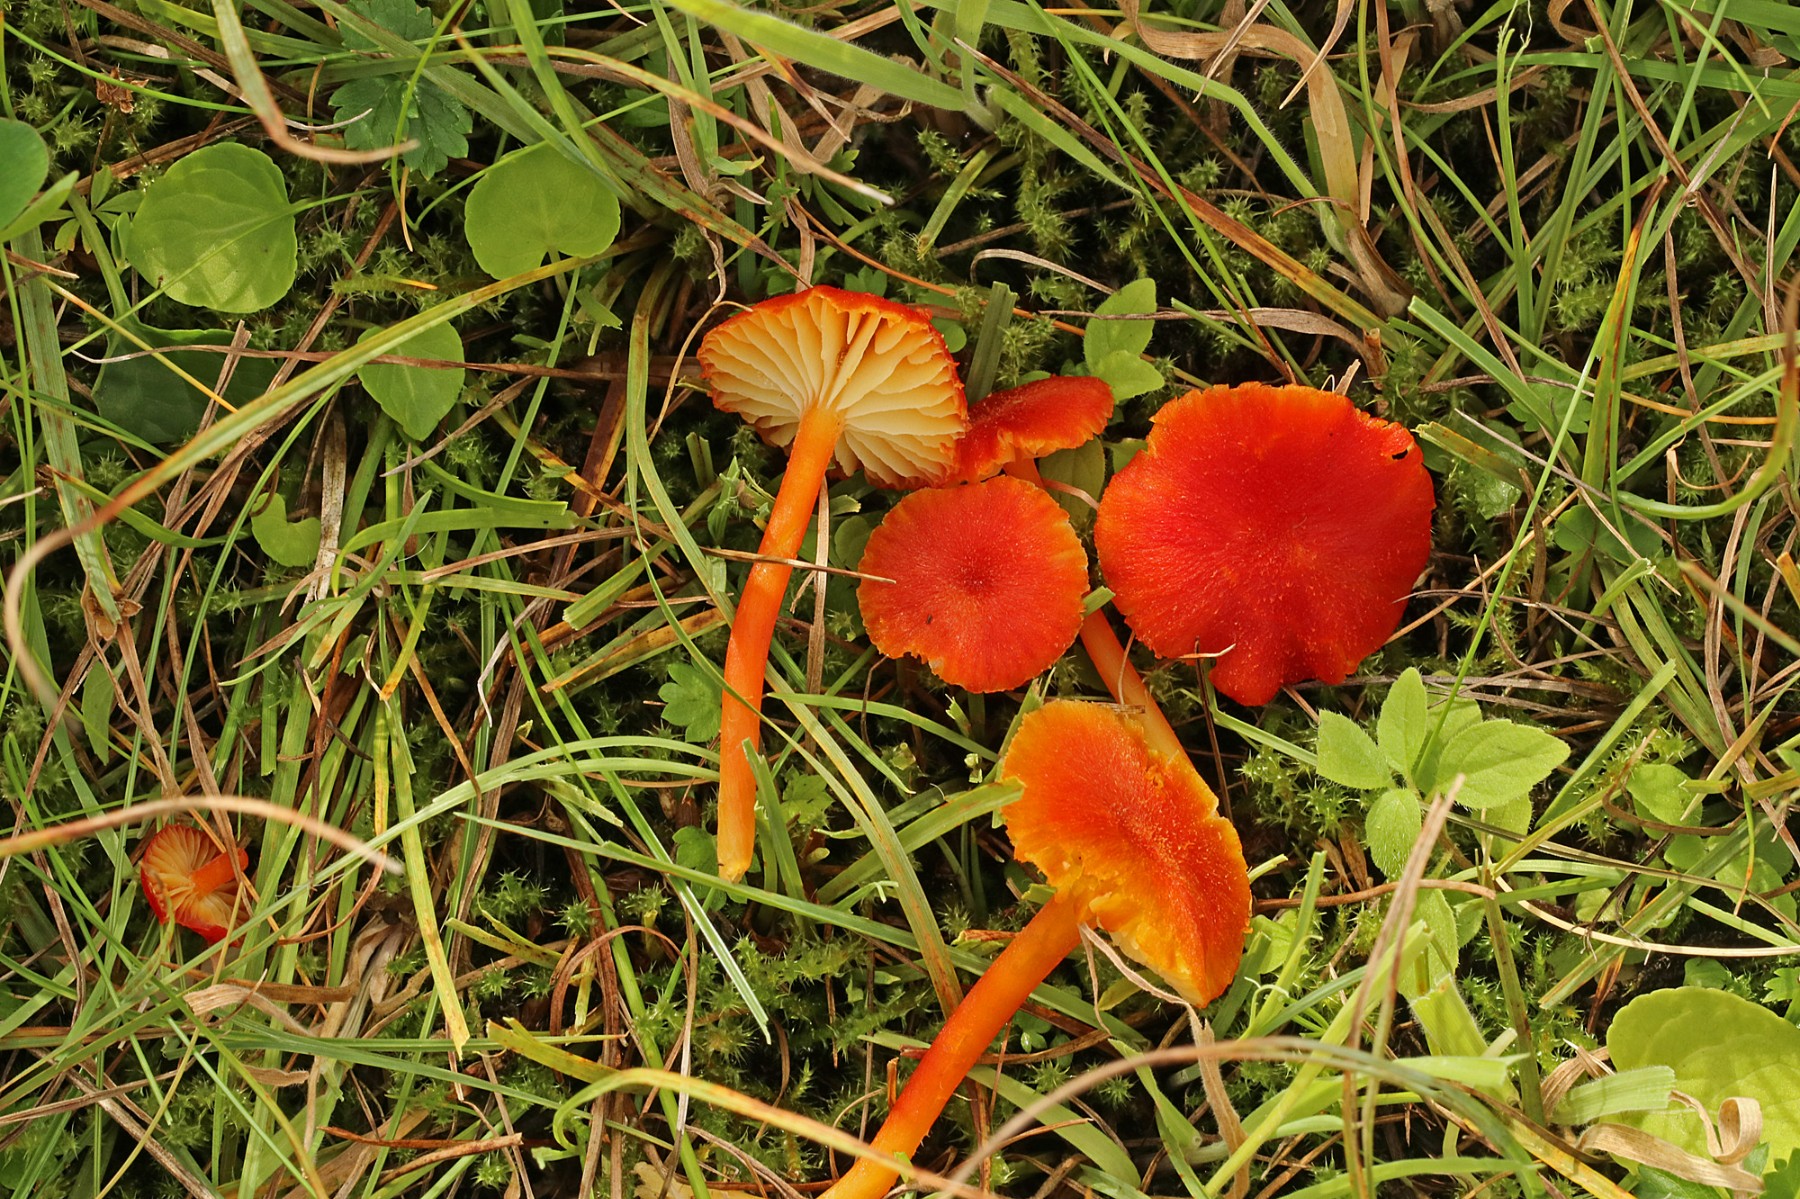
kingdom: Fungi
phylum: Basidiomycota
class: Agaricomycetes
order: Agaricales
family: Hygrophoraceae
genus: Hygrocybe
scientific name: Hygrocybe helobia
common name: hvidløgs-vokshat
